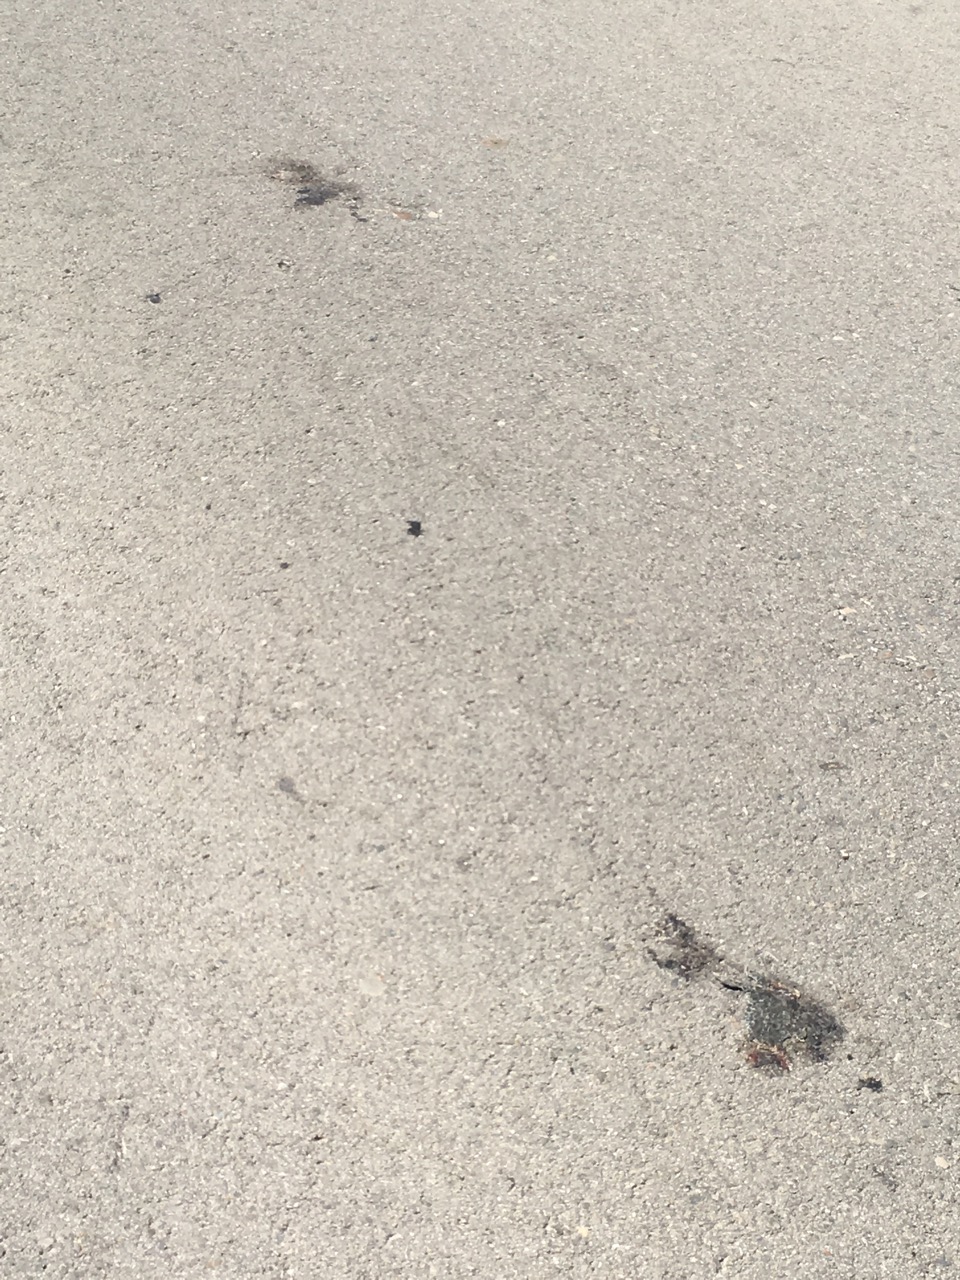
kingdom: Animalia
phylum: Chordata
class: Amphibia
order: Anura
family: Bufonidae
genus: Bufotes
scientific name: Bufotes viridis
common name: European green toad
